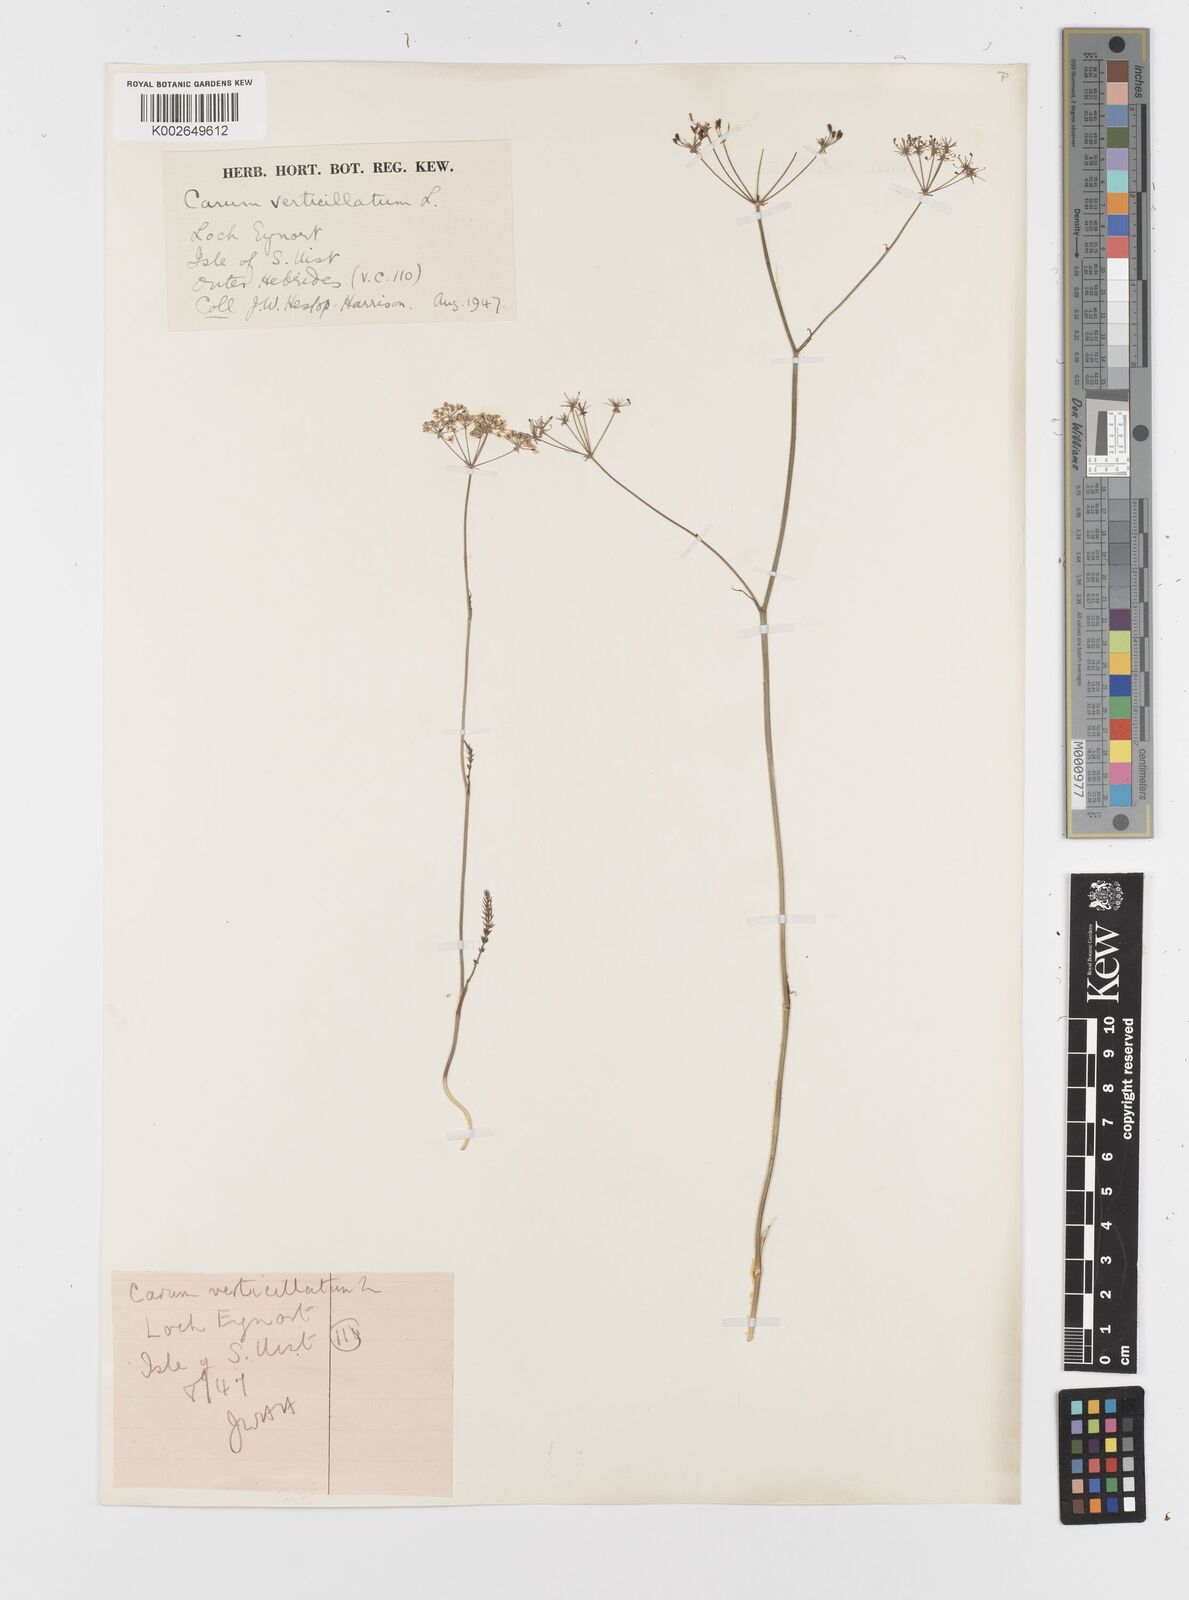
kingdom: Plantae
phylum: Tracheophyta
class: Magnoliopsida
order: Apiales
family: Apiaceae
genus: Trocdaris
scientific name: Trocdaris verticillatum
